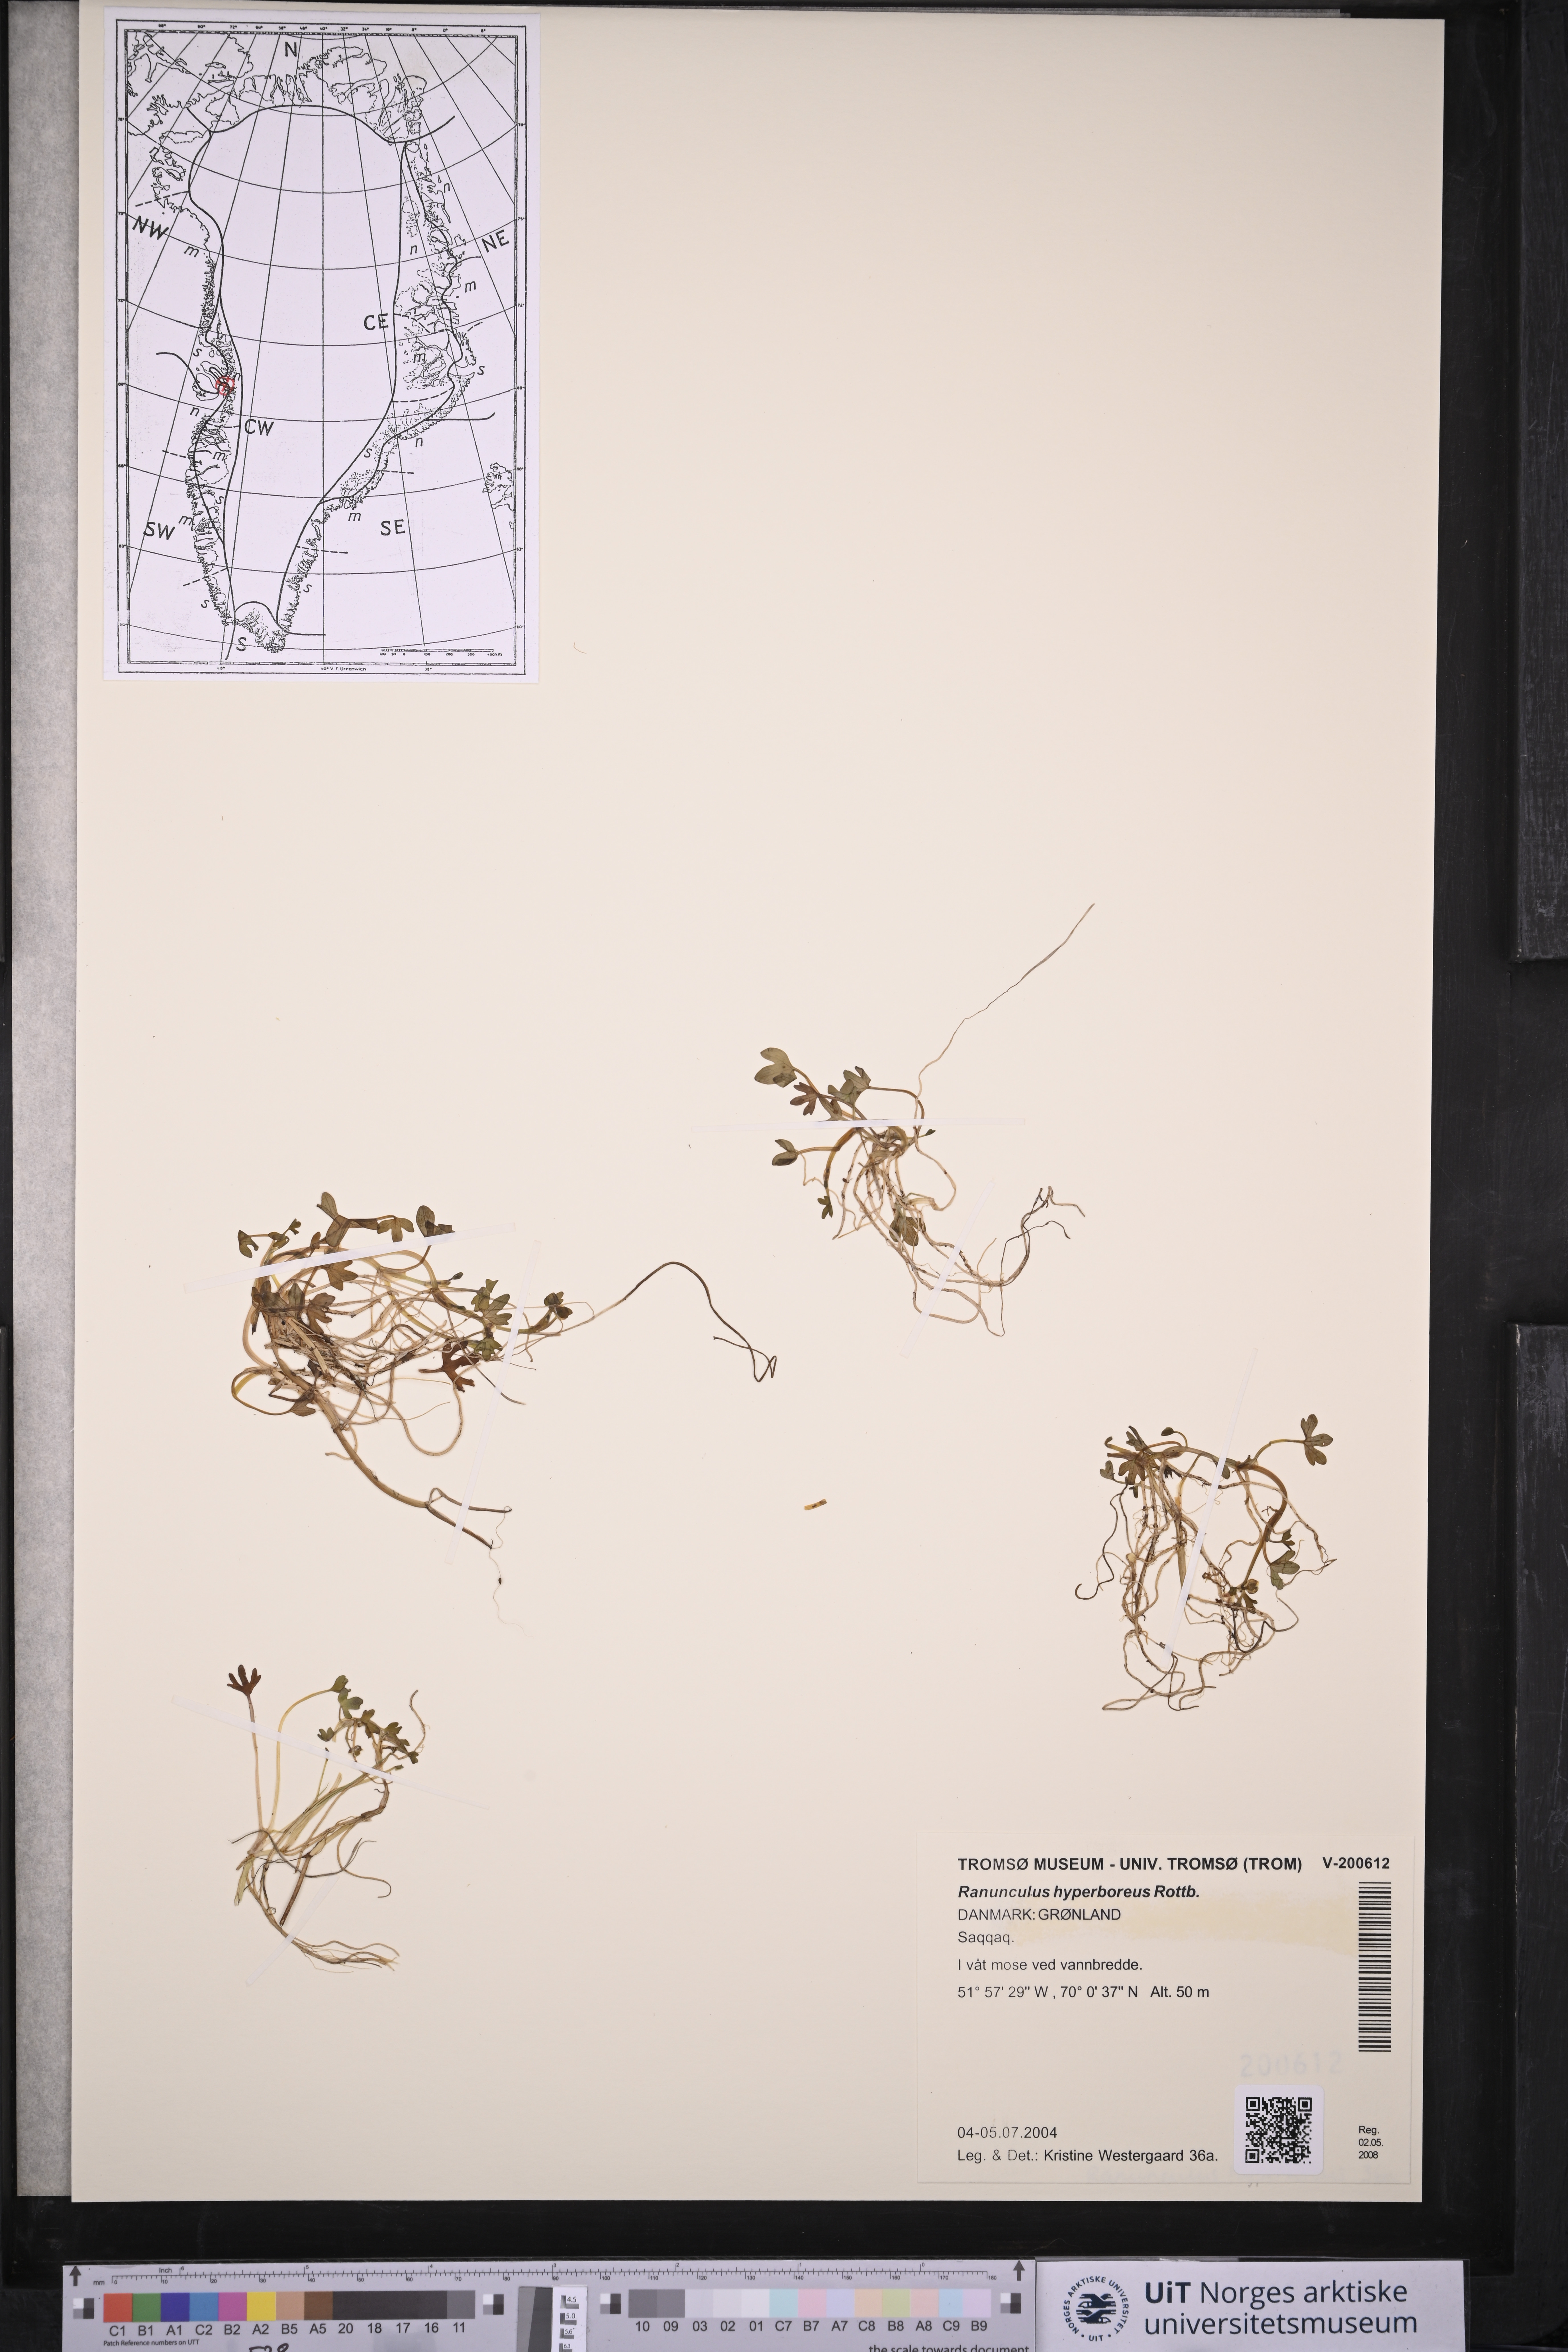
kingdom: Plantae
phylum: Tracheophyta
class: Magnoliopsida
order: Ranunculales
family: Ranunculaceae
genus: Ranunculus
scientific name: Ranunculus hyperboreus
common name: Arctic buttercup
